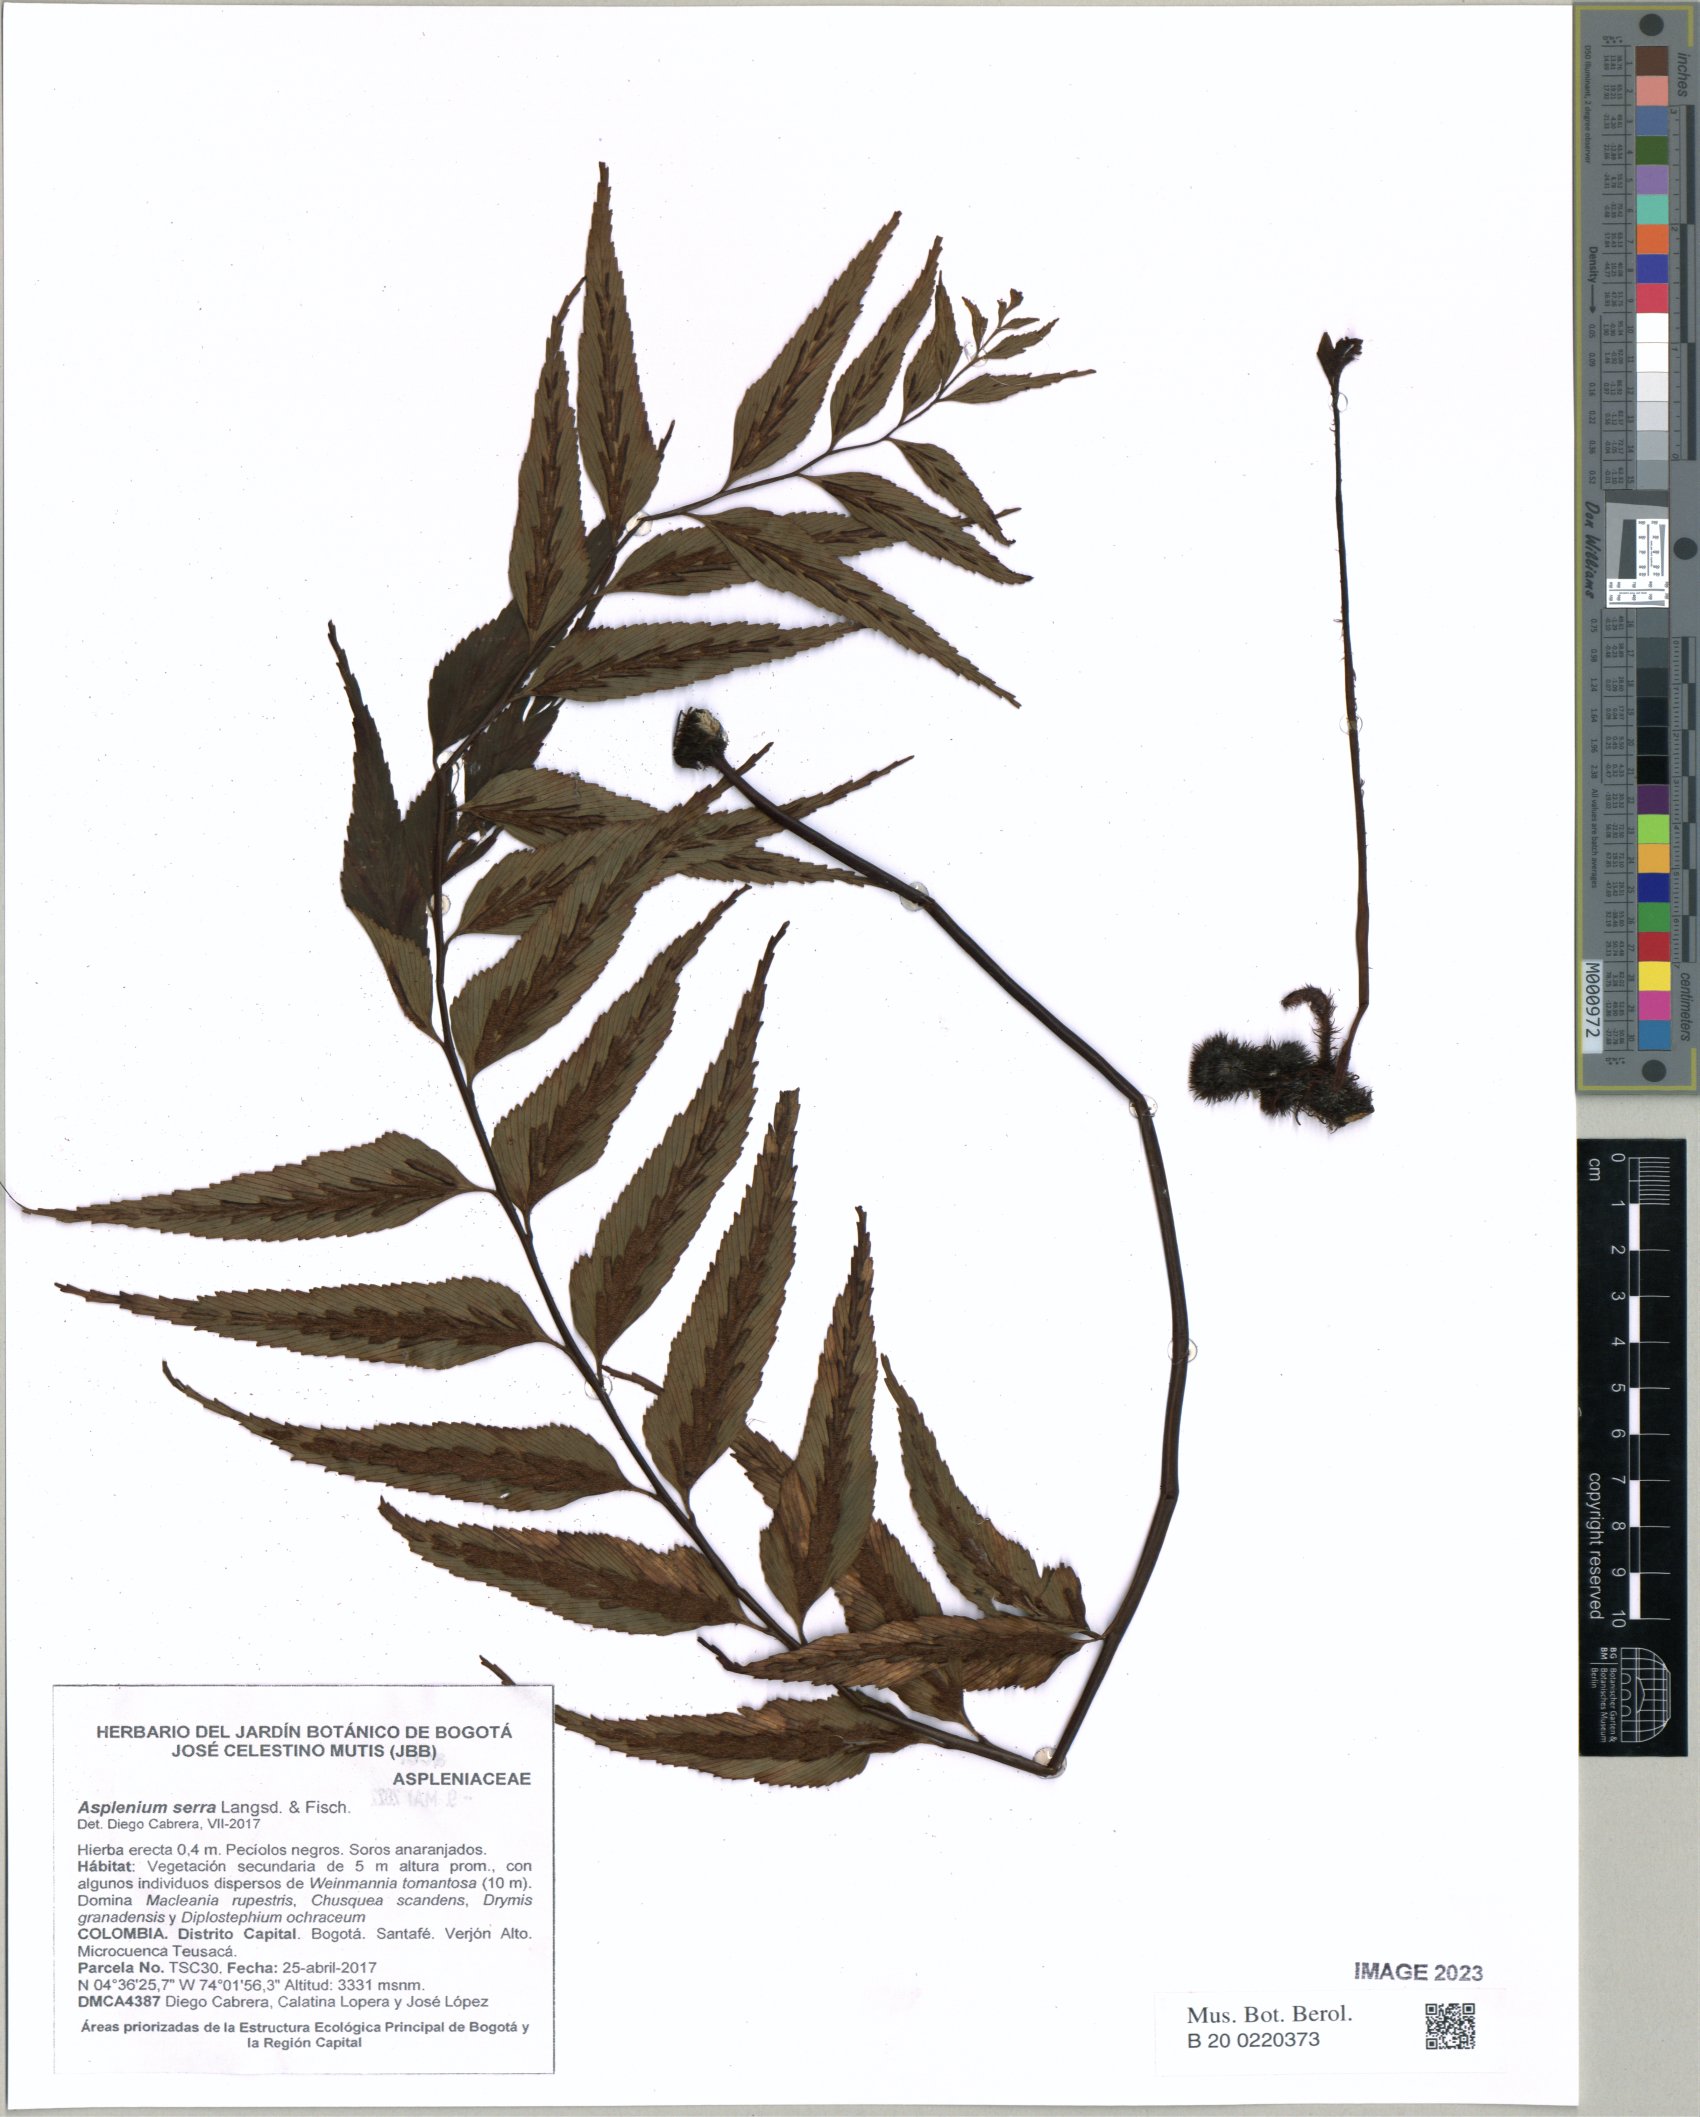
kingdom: Plantae
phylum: Tracheophyta
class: Polypodiopsida
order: Polypodiales
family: Aspleniaceae
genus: Asplenium
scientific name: Asplenium serra
